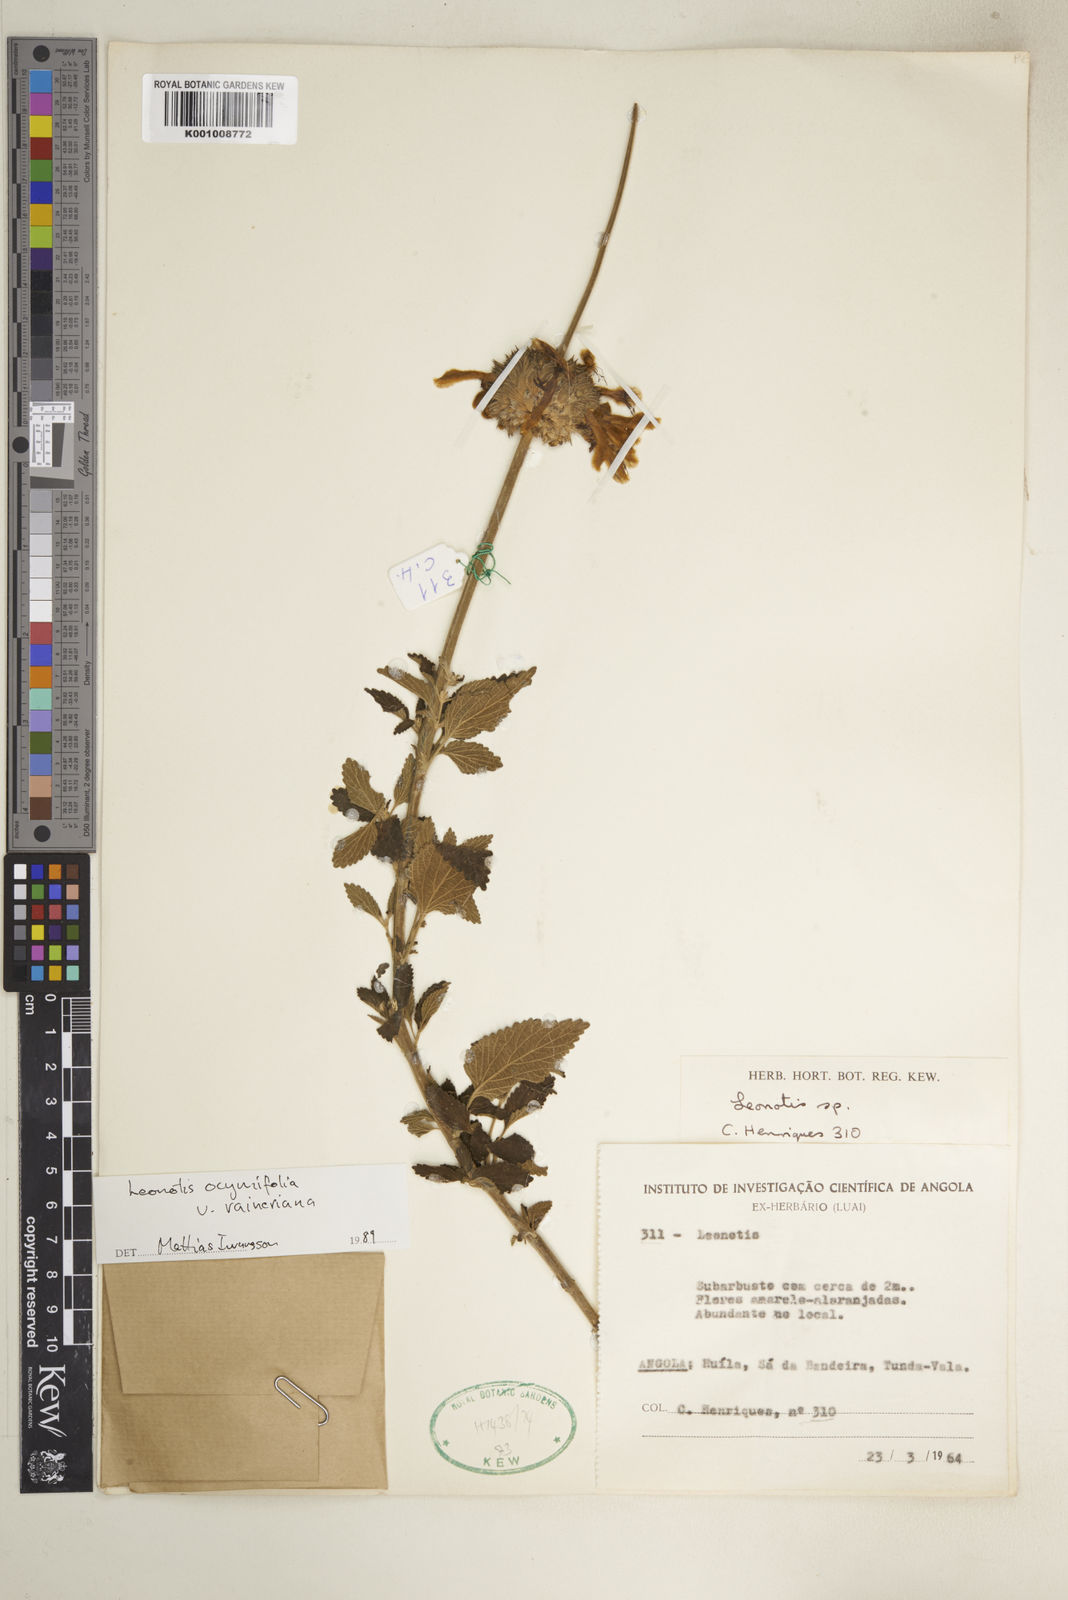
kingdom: Plantae
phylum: Tracheophyta
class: Magnoliopsida
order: Lamiales
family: Lamiaceae
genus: Leonotis
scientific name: Leonotis ocymifolia
